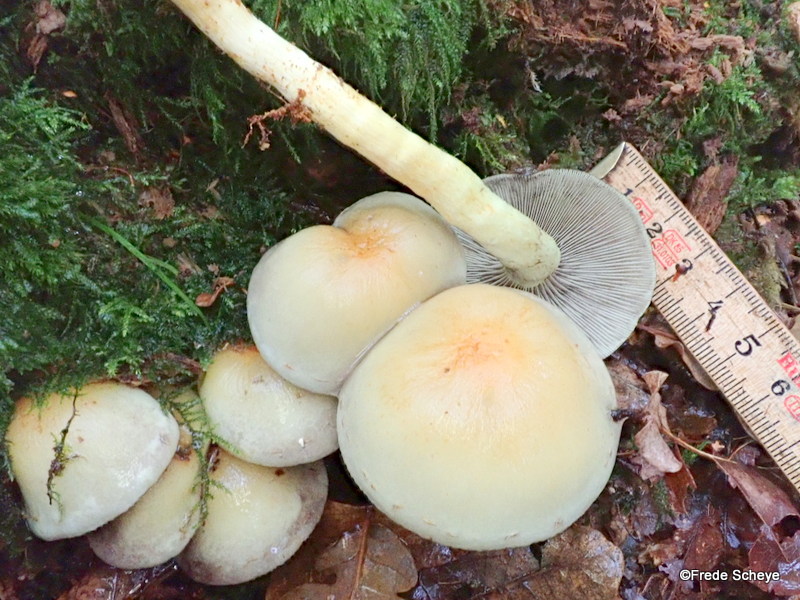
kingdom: Fungi
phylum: Basidiomycota
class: Agaricomycetes
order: Agaricales
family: Strophariaceae
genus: Hypholoma
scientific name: Hypholoma fasciculare
